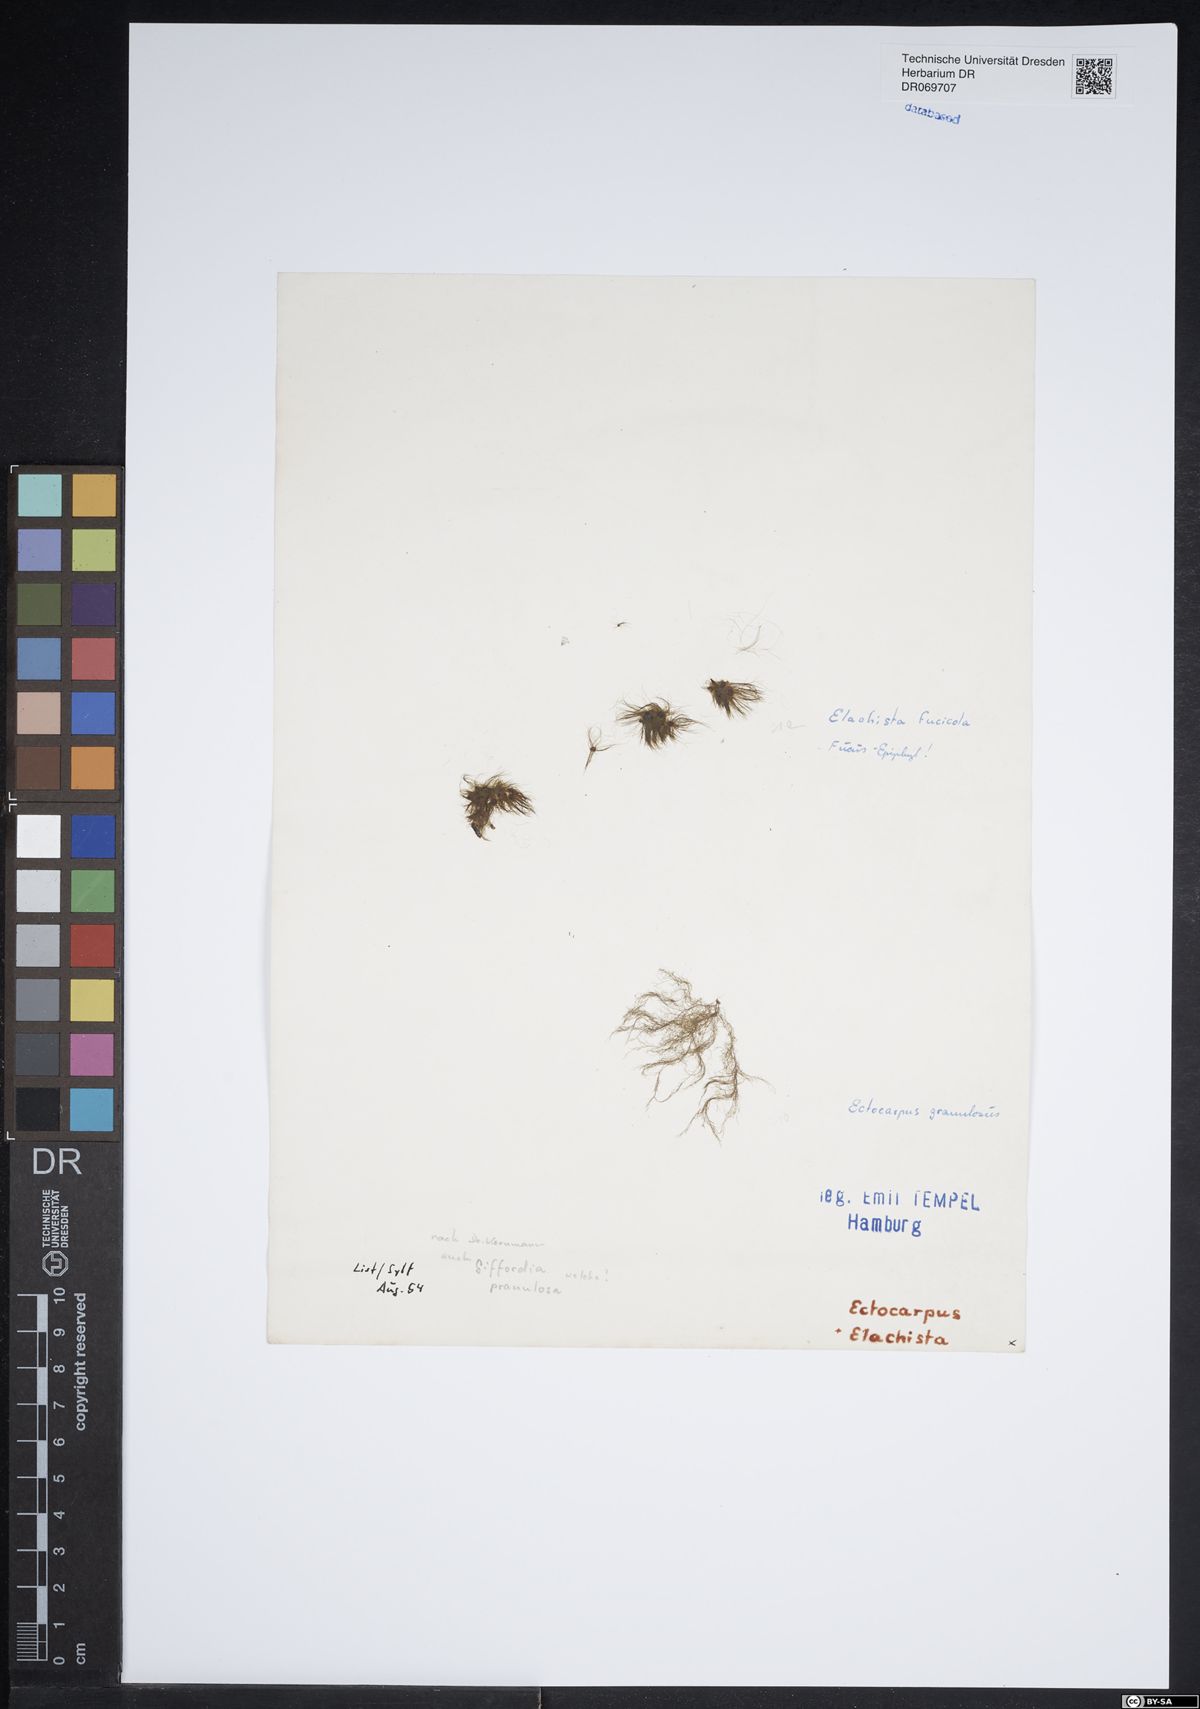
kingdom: Chromista
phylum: Ochrophyta
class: Phaeophyceae
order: Ectocarpales
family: Acinetosporaceae
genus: Hincksia
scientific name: Hincksia granulosa
